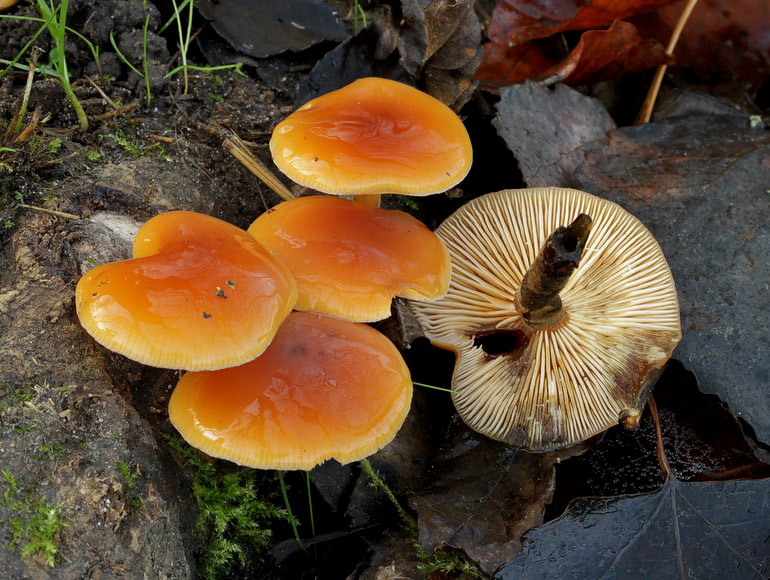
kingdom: Fungi
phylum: Basidiomycota
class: Agaricomycetes
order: Agaricales
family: Physalacriaceae
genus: Flammulina
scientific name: Flammulina velutipes
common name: gul fløjlsfod
